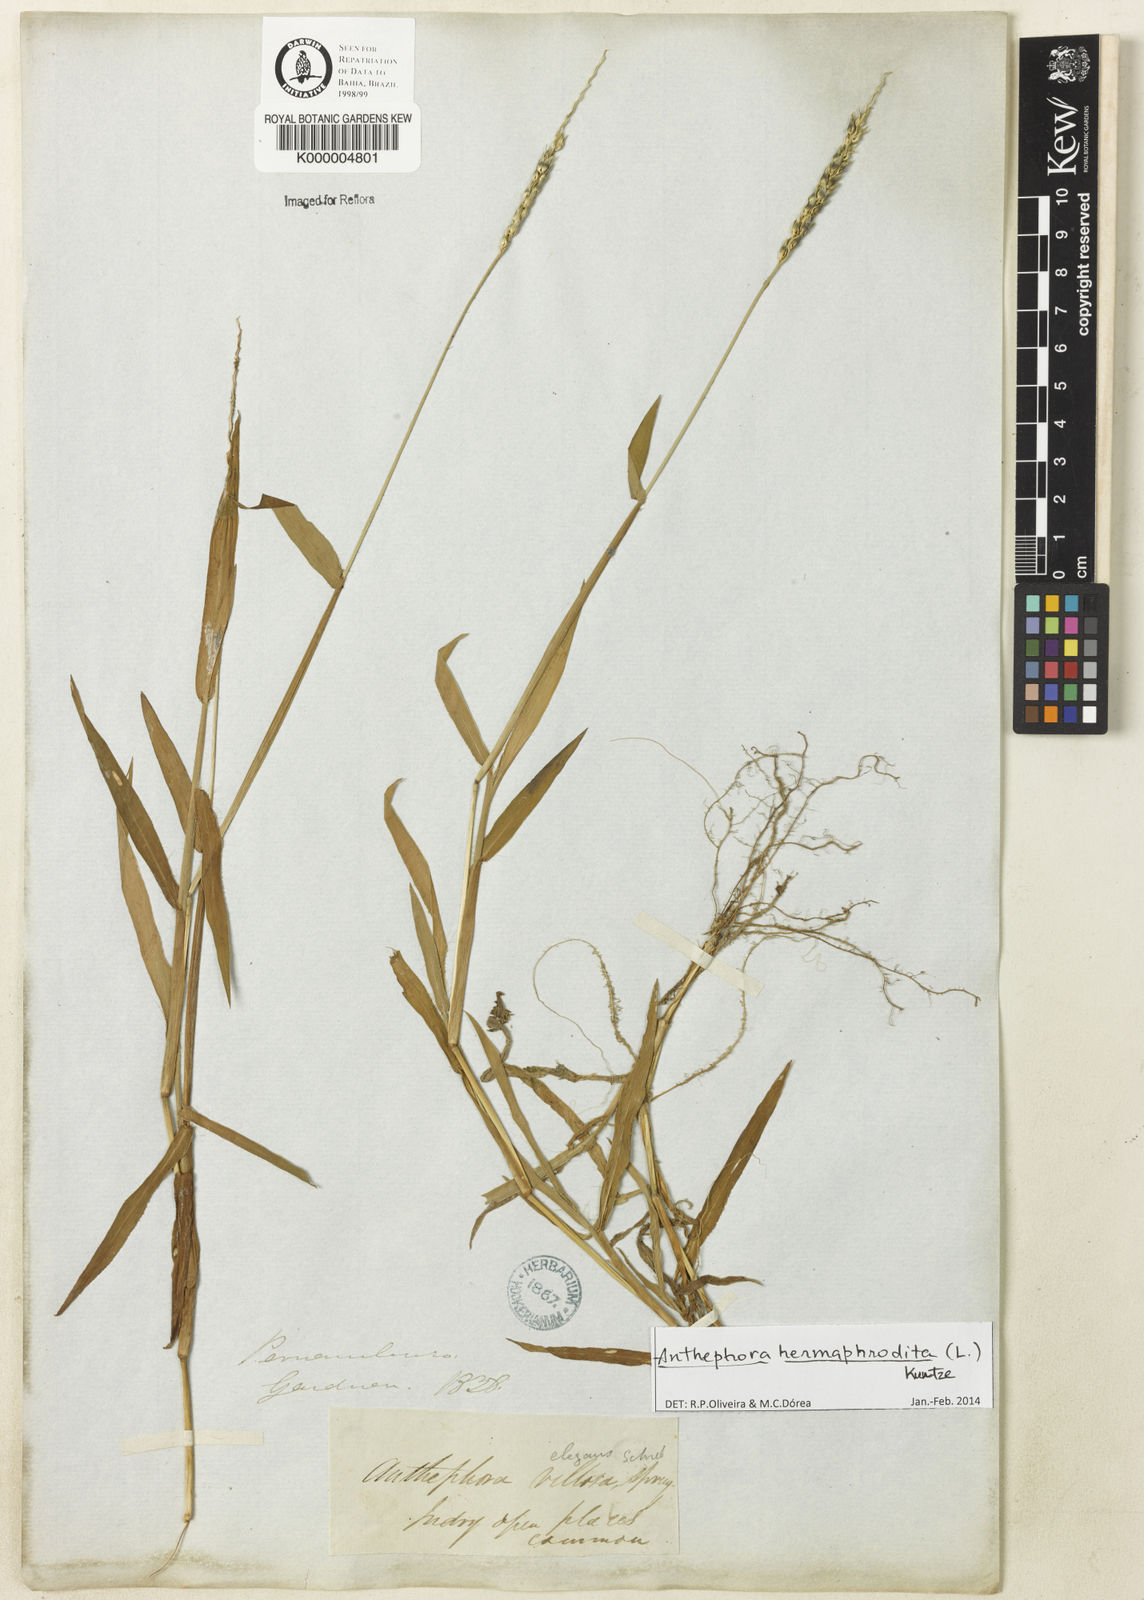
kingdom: Plantae
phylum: Tracheophyta
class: Liliopsida
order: Poales
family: Poaceae
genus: Anthephora
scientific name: Anthephora hermaphrodita
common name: Oldfield grass
